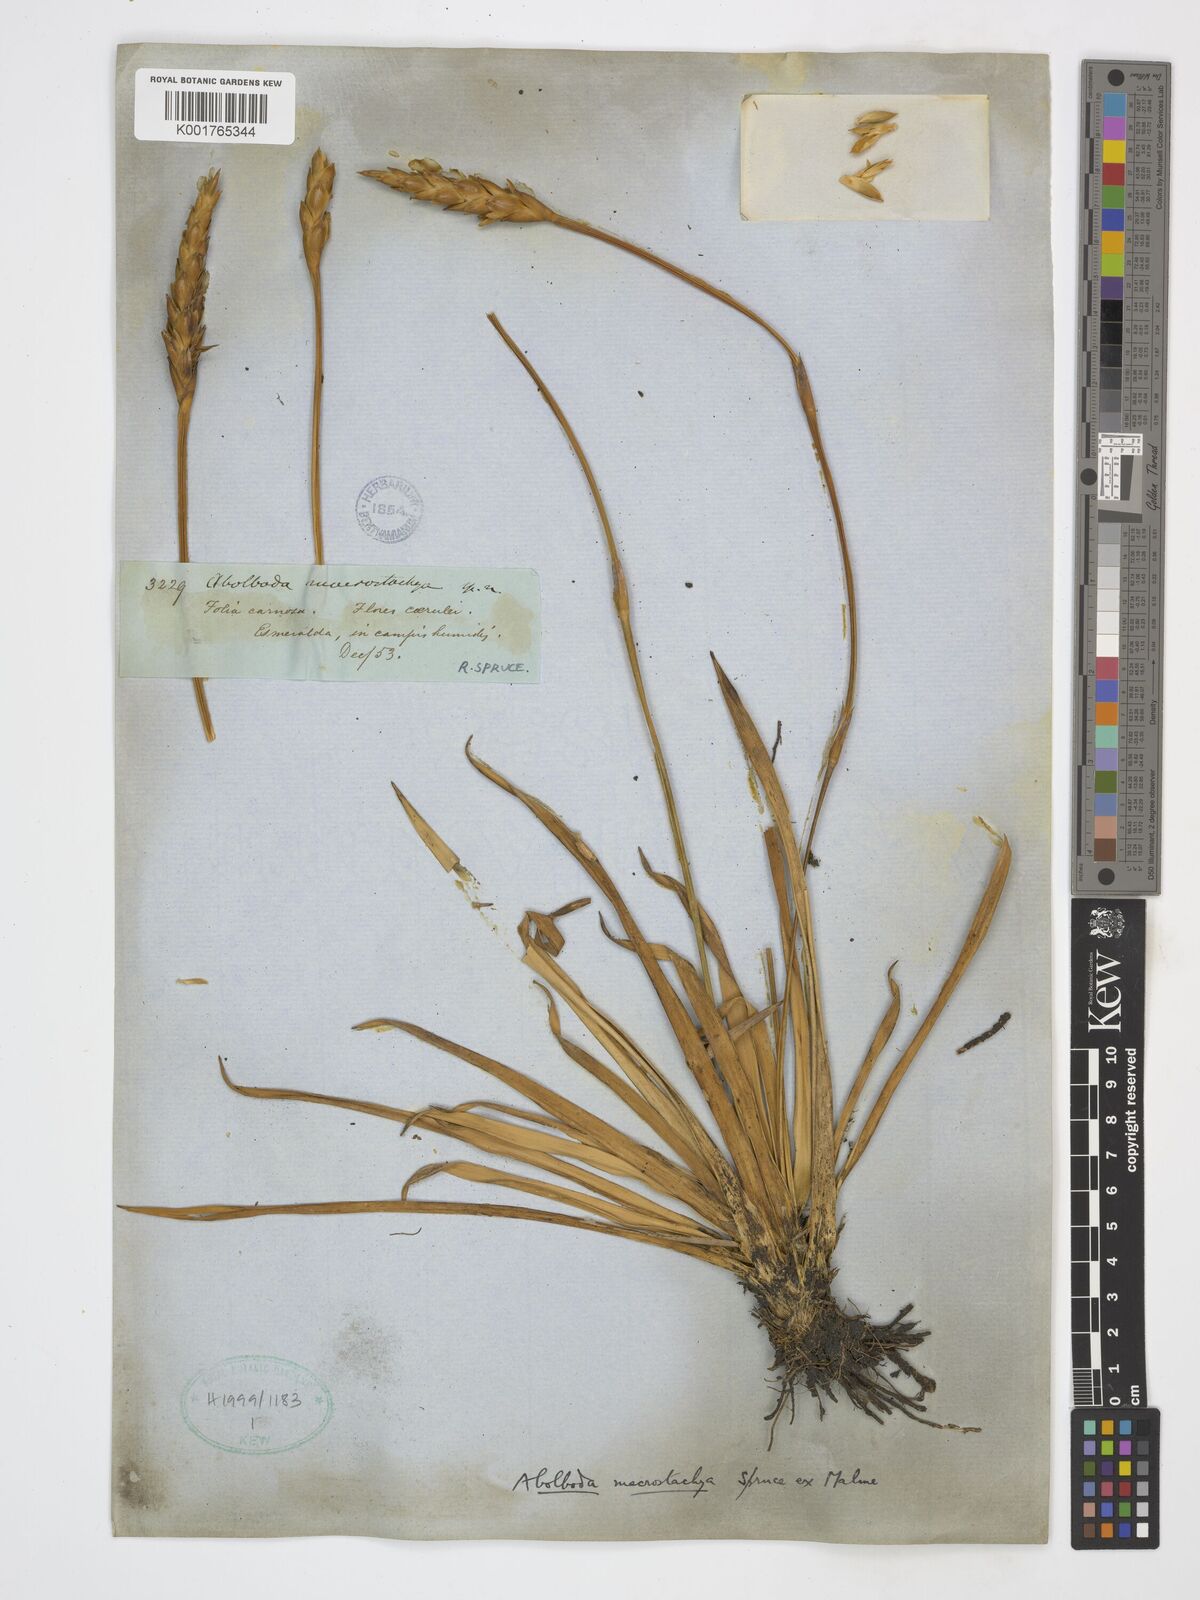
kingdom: Plantae
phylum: Tracheophyta
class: Liliopsida
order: Poales
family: Xyridaceae
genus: Abolboda
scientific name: Abolboda macrostachya
